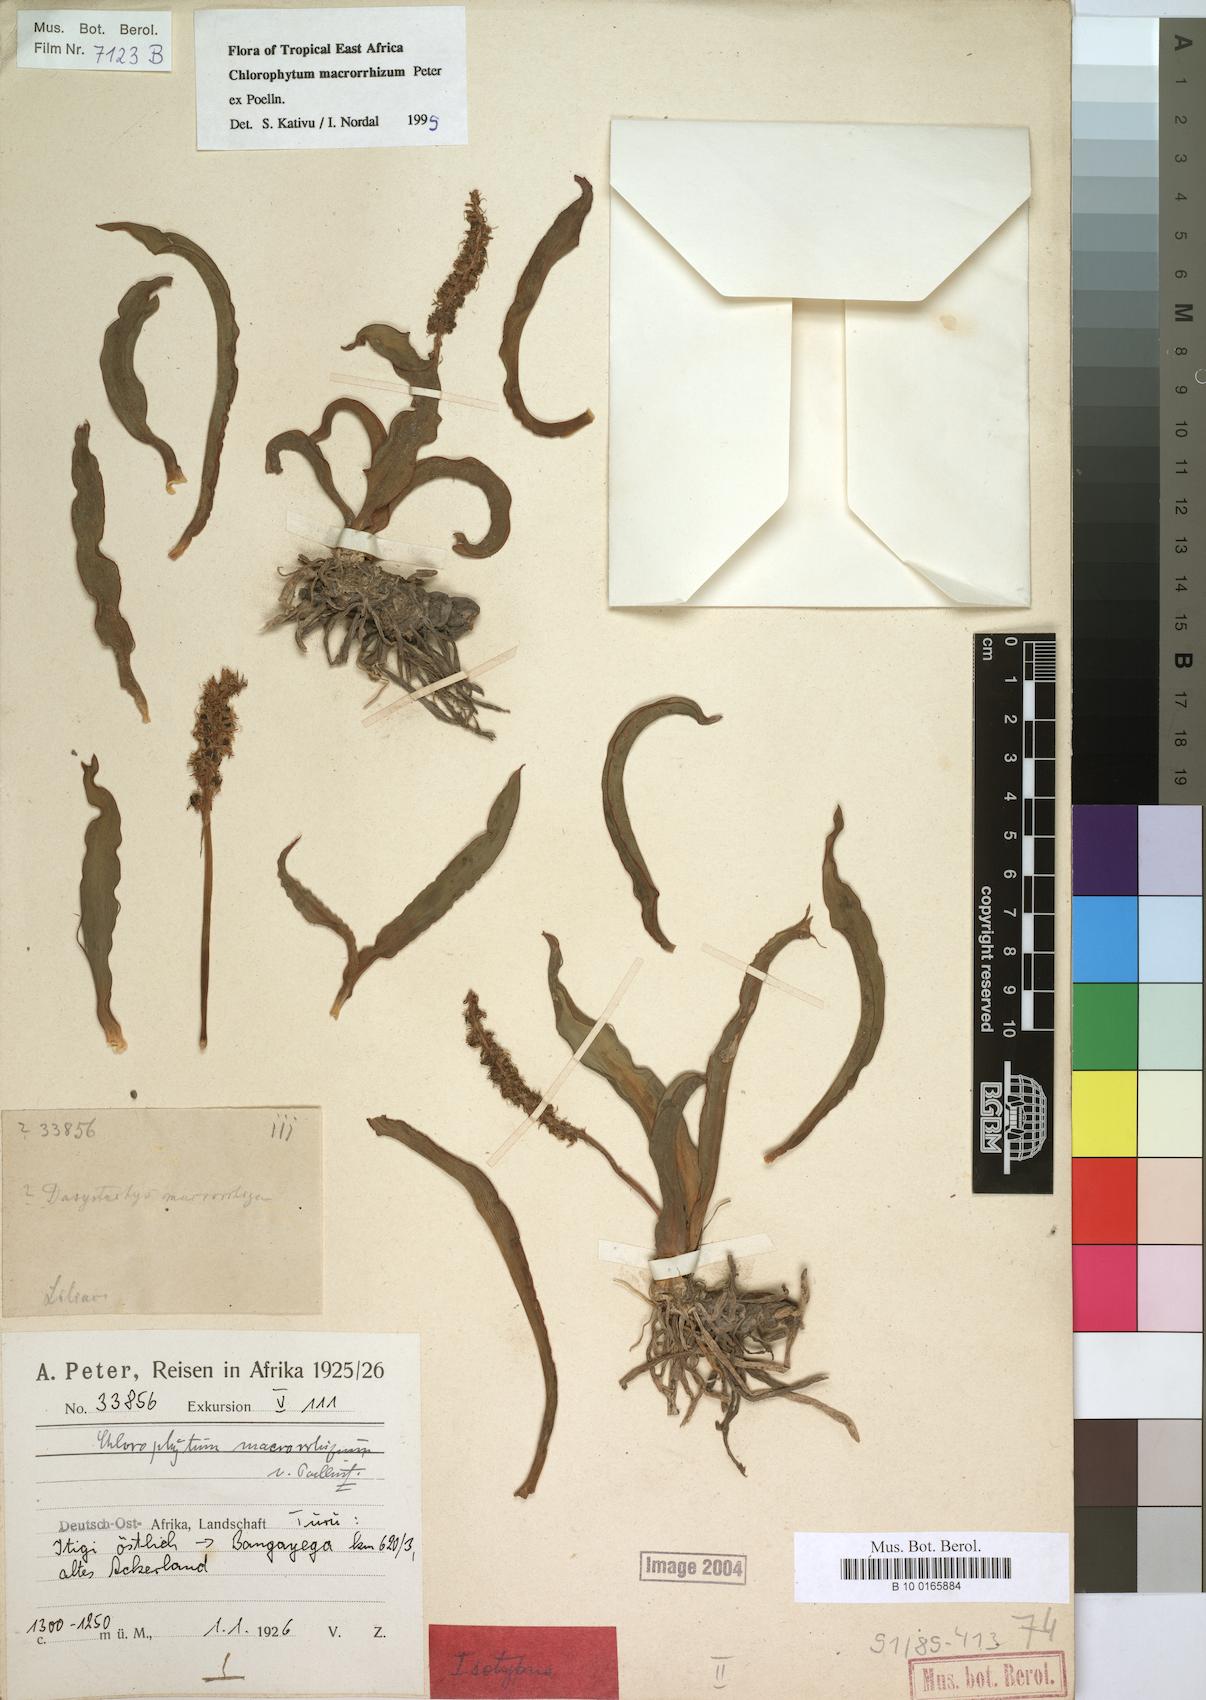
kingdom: Plantae
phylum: Tracheophyta
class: Liliopsida
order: Asparagales
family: Asparagaceae
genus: Chlorophytum
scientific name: Chlorophytum macrorrhizum
